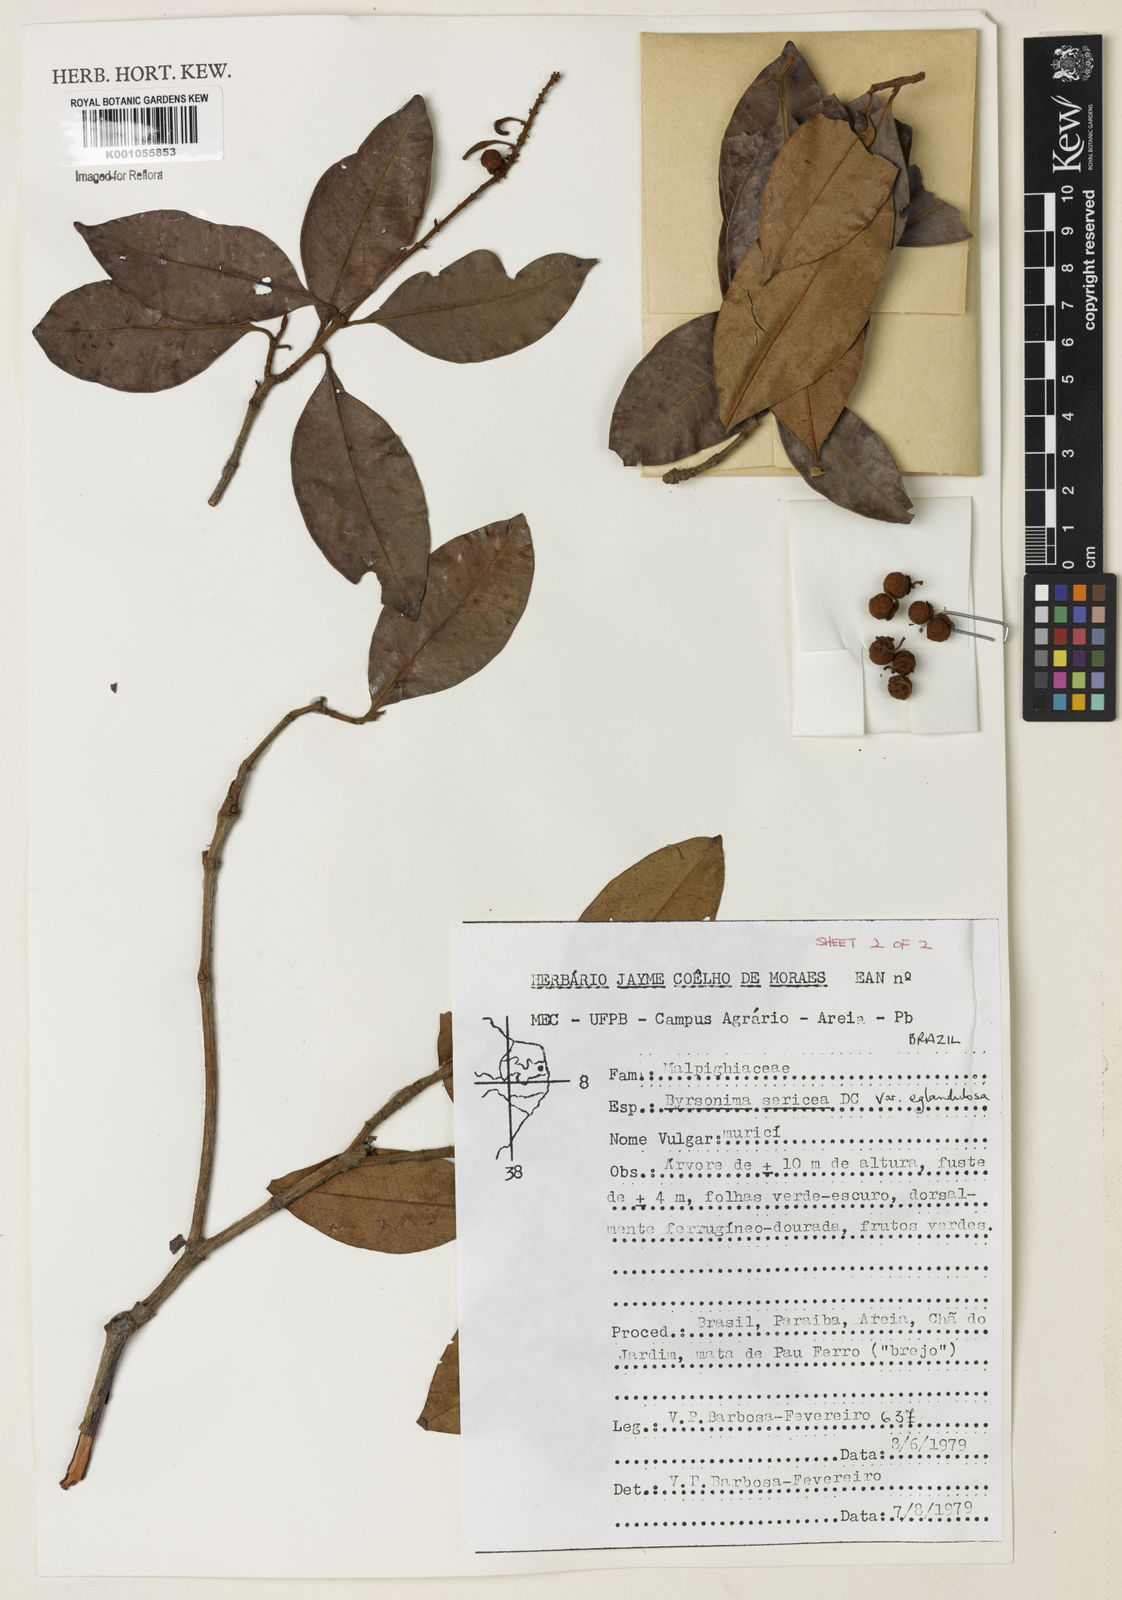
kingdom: Plantae
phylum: Tracheophyta
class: Magnoliopsida
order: Malpighiales
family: Malpighiaceae
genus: Byrsonima
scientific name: Byrsonima sericea
